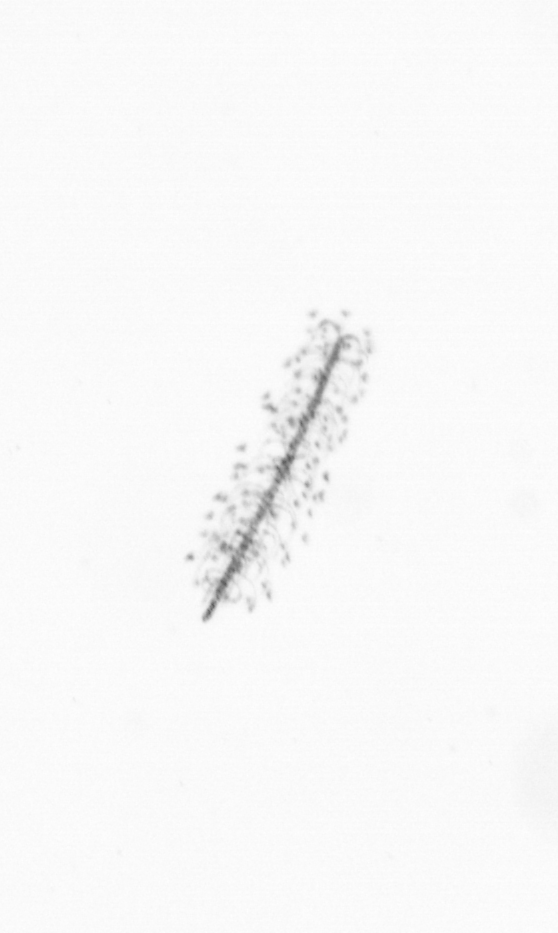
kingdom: Chromista
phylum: Ochrophyta
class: Bacillariophyceae
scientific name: Bacillariophyceae
